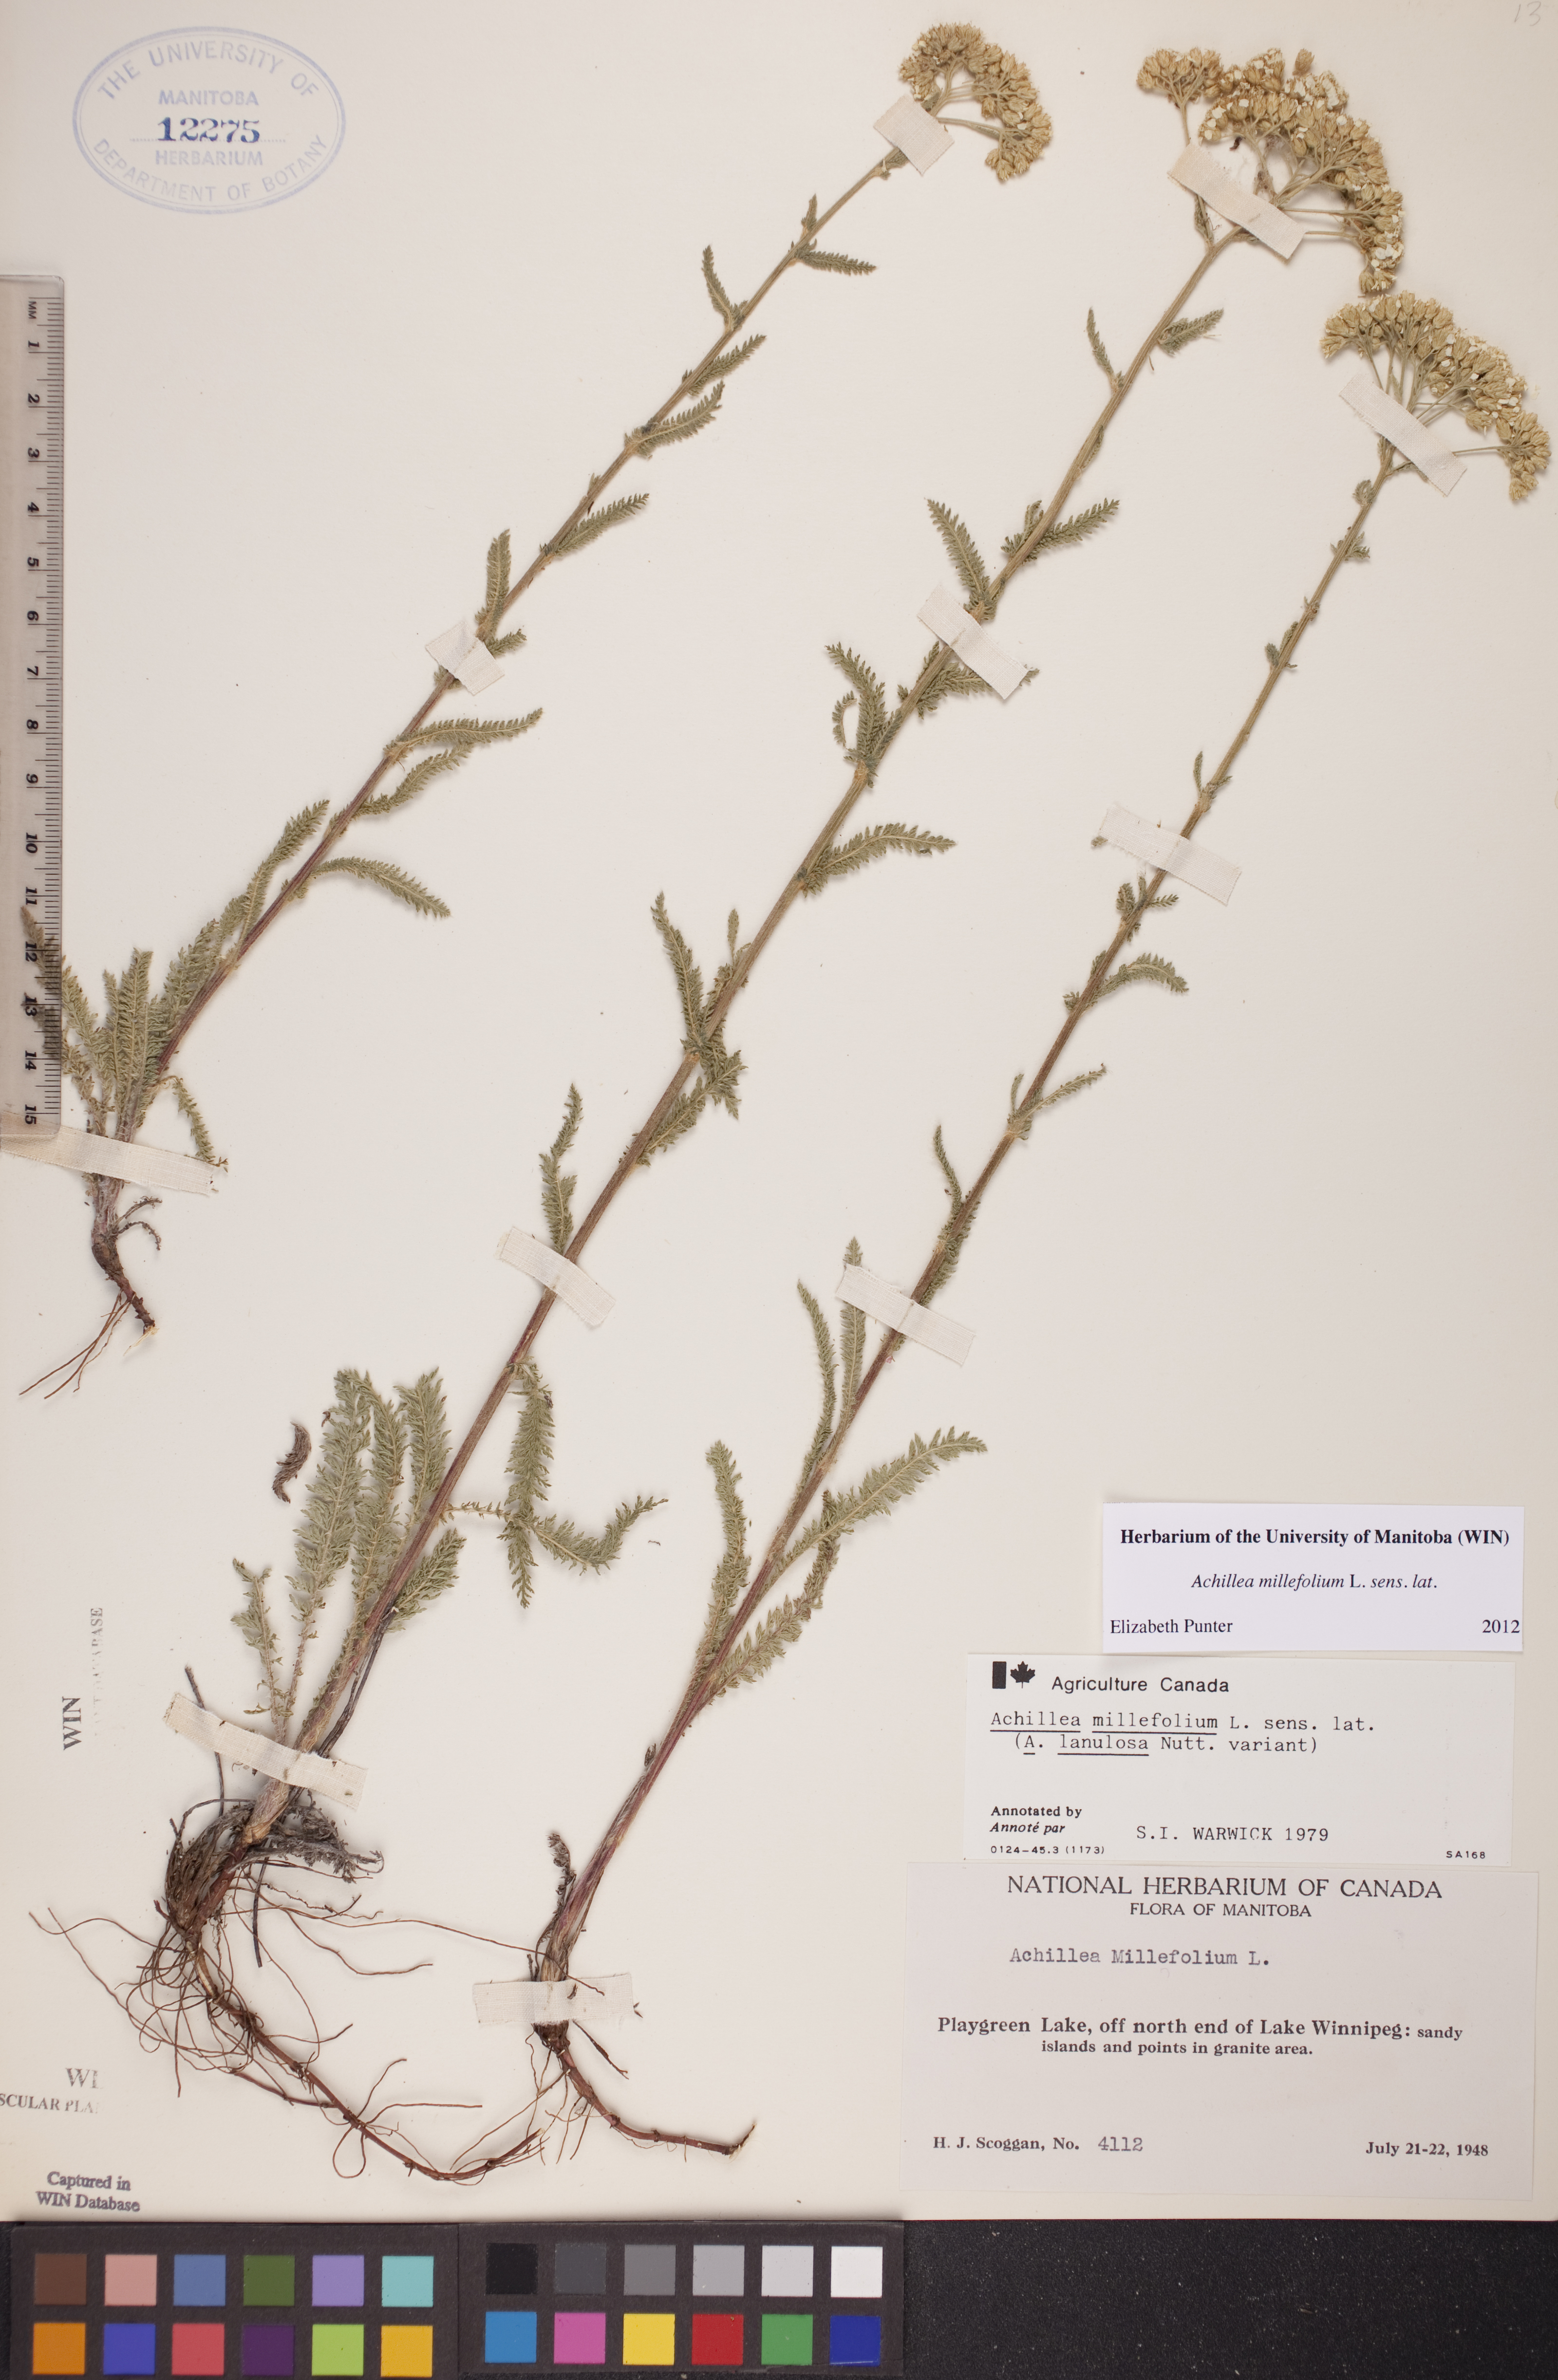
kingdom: Plantae
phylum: Tracheophyta
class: Magnoliopsida
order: Asterales
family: Asteraceae
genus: Achillea
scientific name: Achillea millefolium
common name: Yarrow
